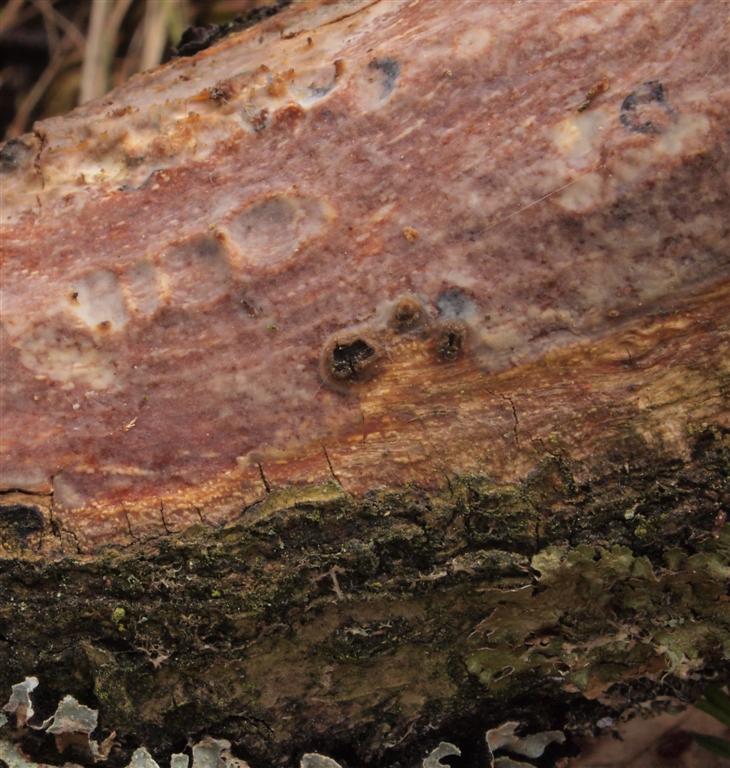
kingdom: Fungi
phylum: Basidiomycota
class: Agaricomycetes
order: Corticiales
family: Vuilleminiaceae
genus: Vuilleminia
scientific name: Vuilleminia comedens
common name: almindelig barksprænger
